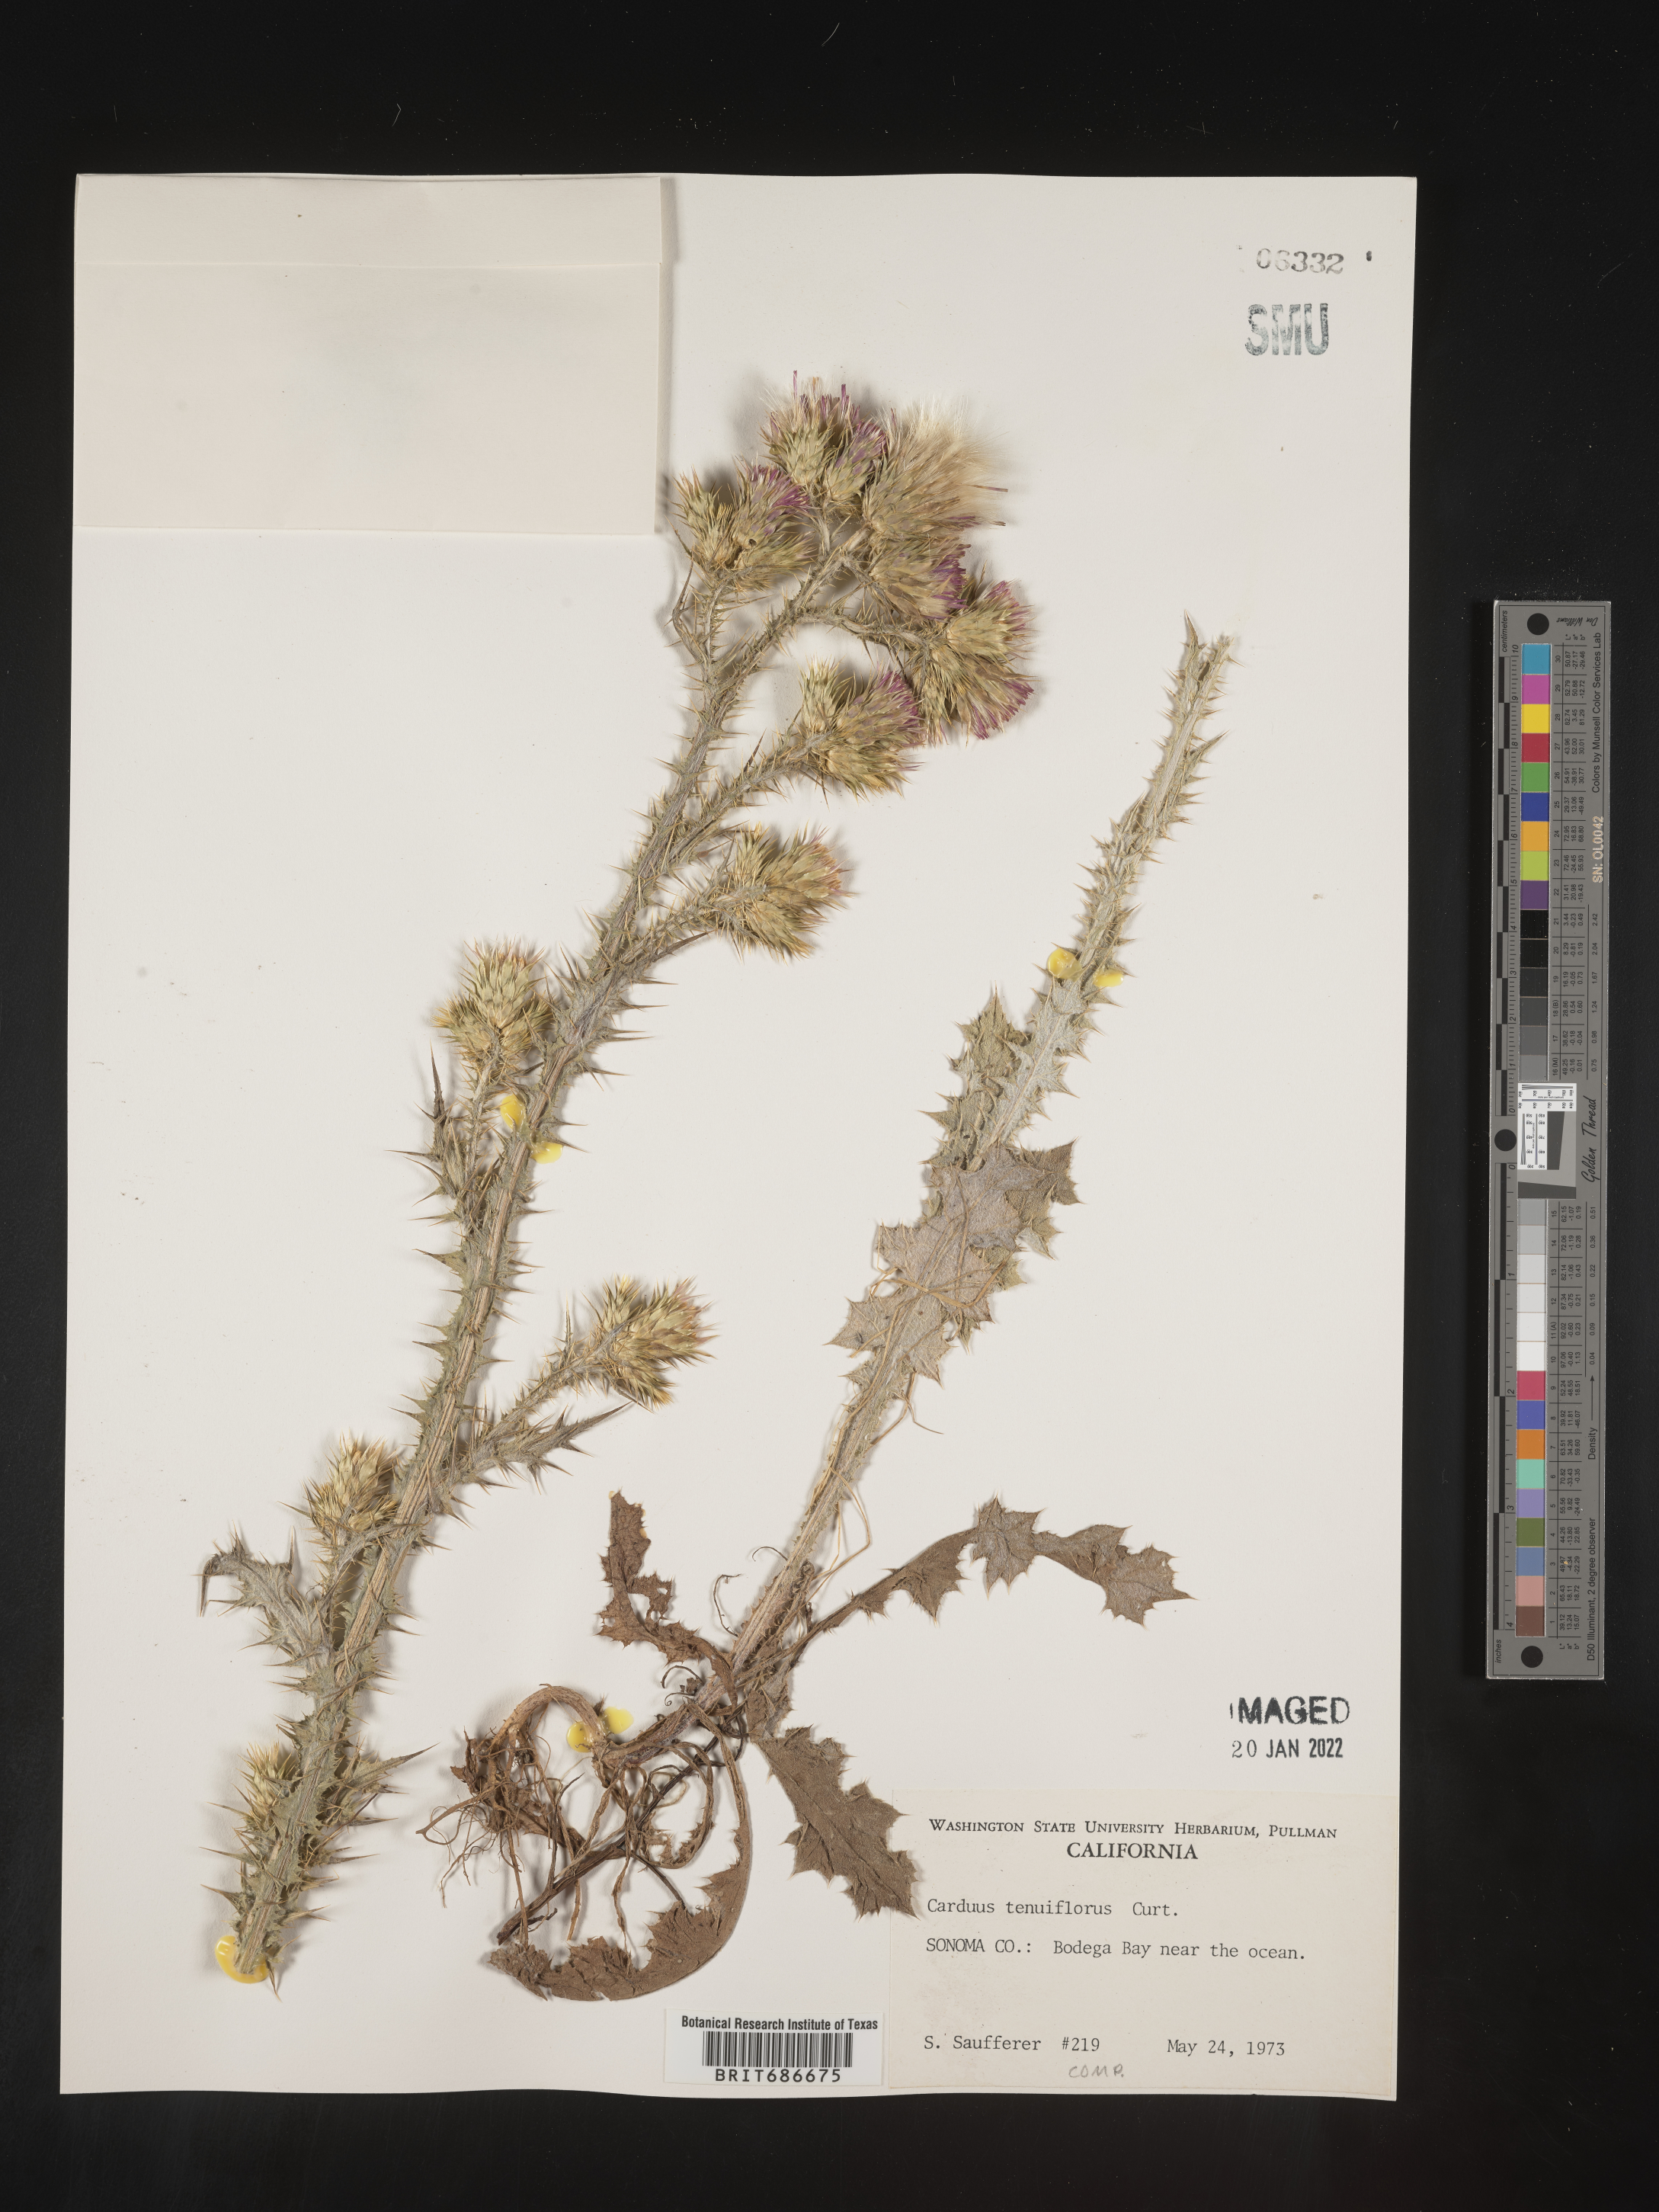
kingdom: Plantae
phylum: Tracheophyta
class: Magnoliopsida
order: Asterales
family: Asteraceae
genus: Carduus
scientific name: Carduus tenuiflorus
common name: Slender thistle
